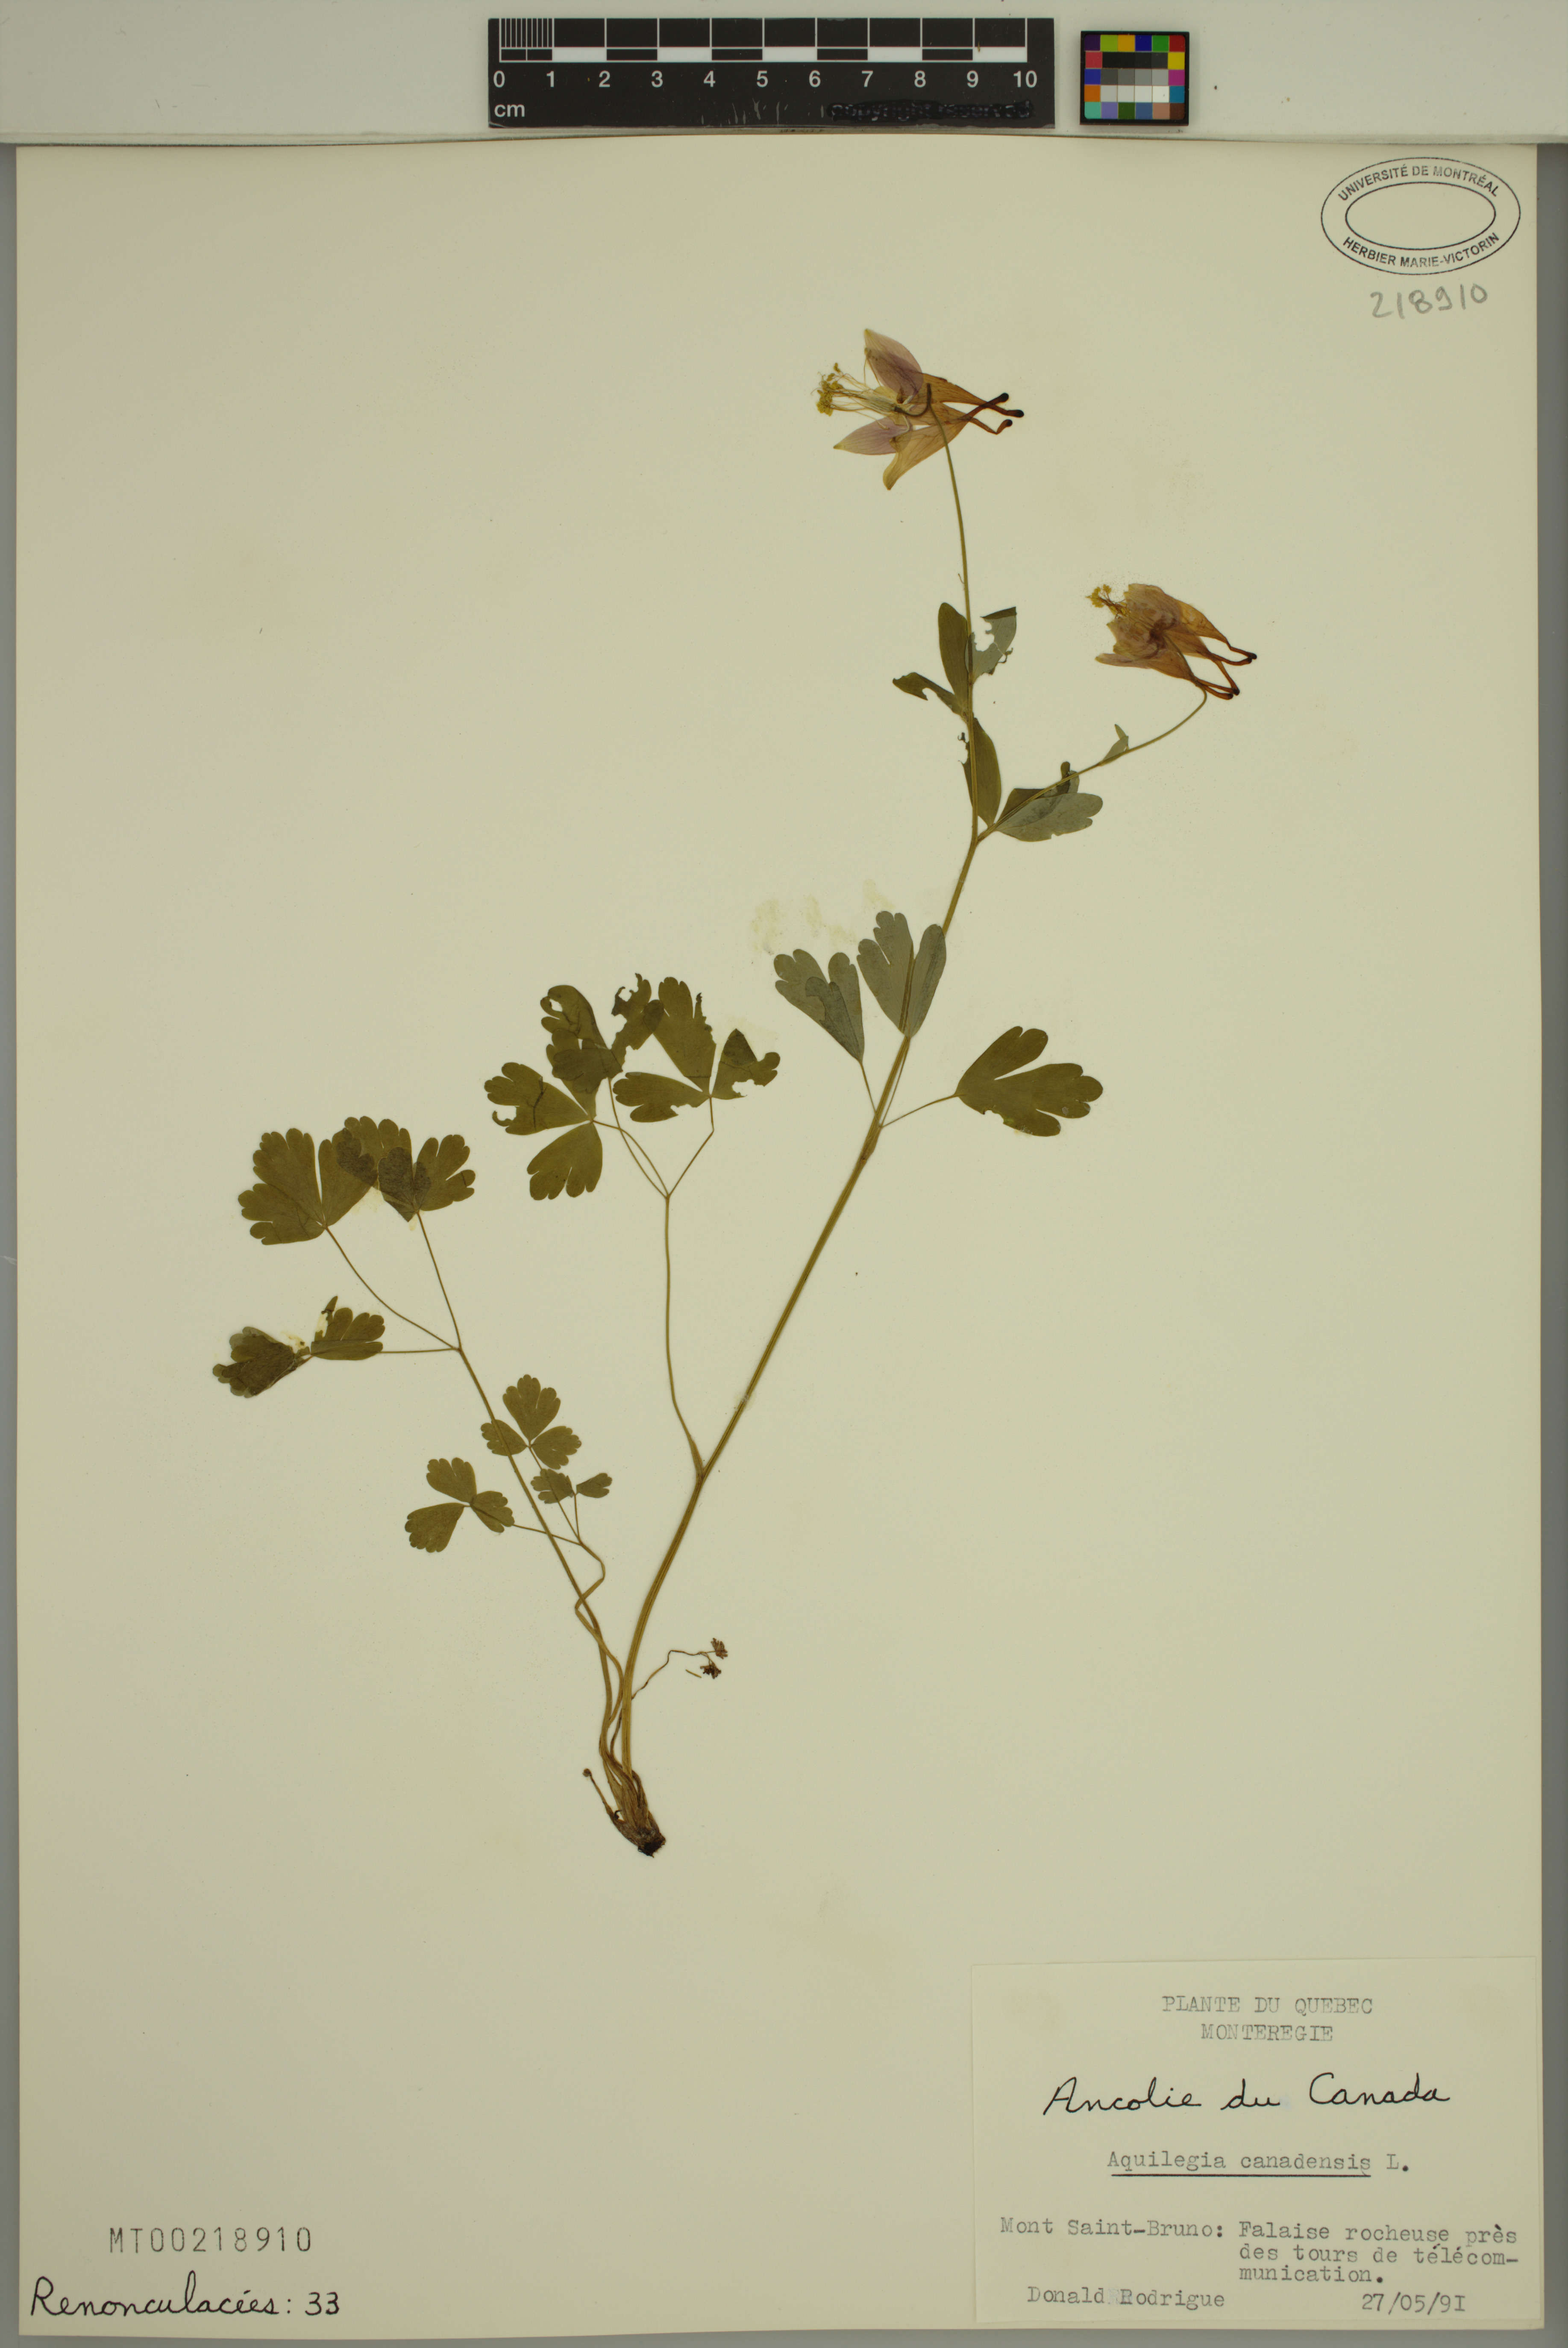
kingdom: Plantae
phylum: Tracheophyta
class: Magnoliopsida
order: Ranunculales
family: Ranunculaceae
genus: Aquilegia
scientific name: Aquilegia canadensis
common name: American columbine
